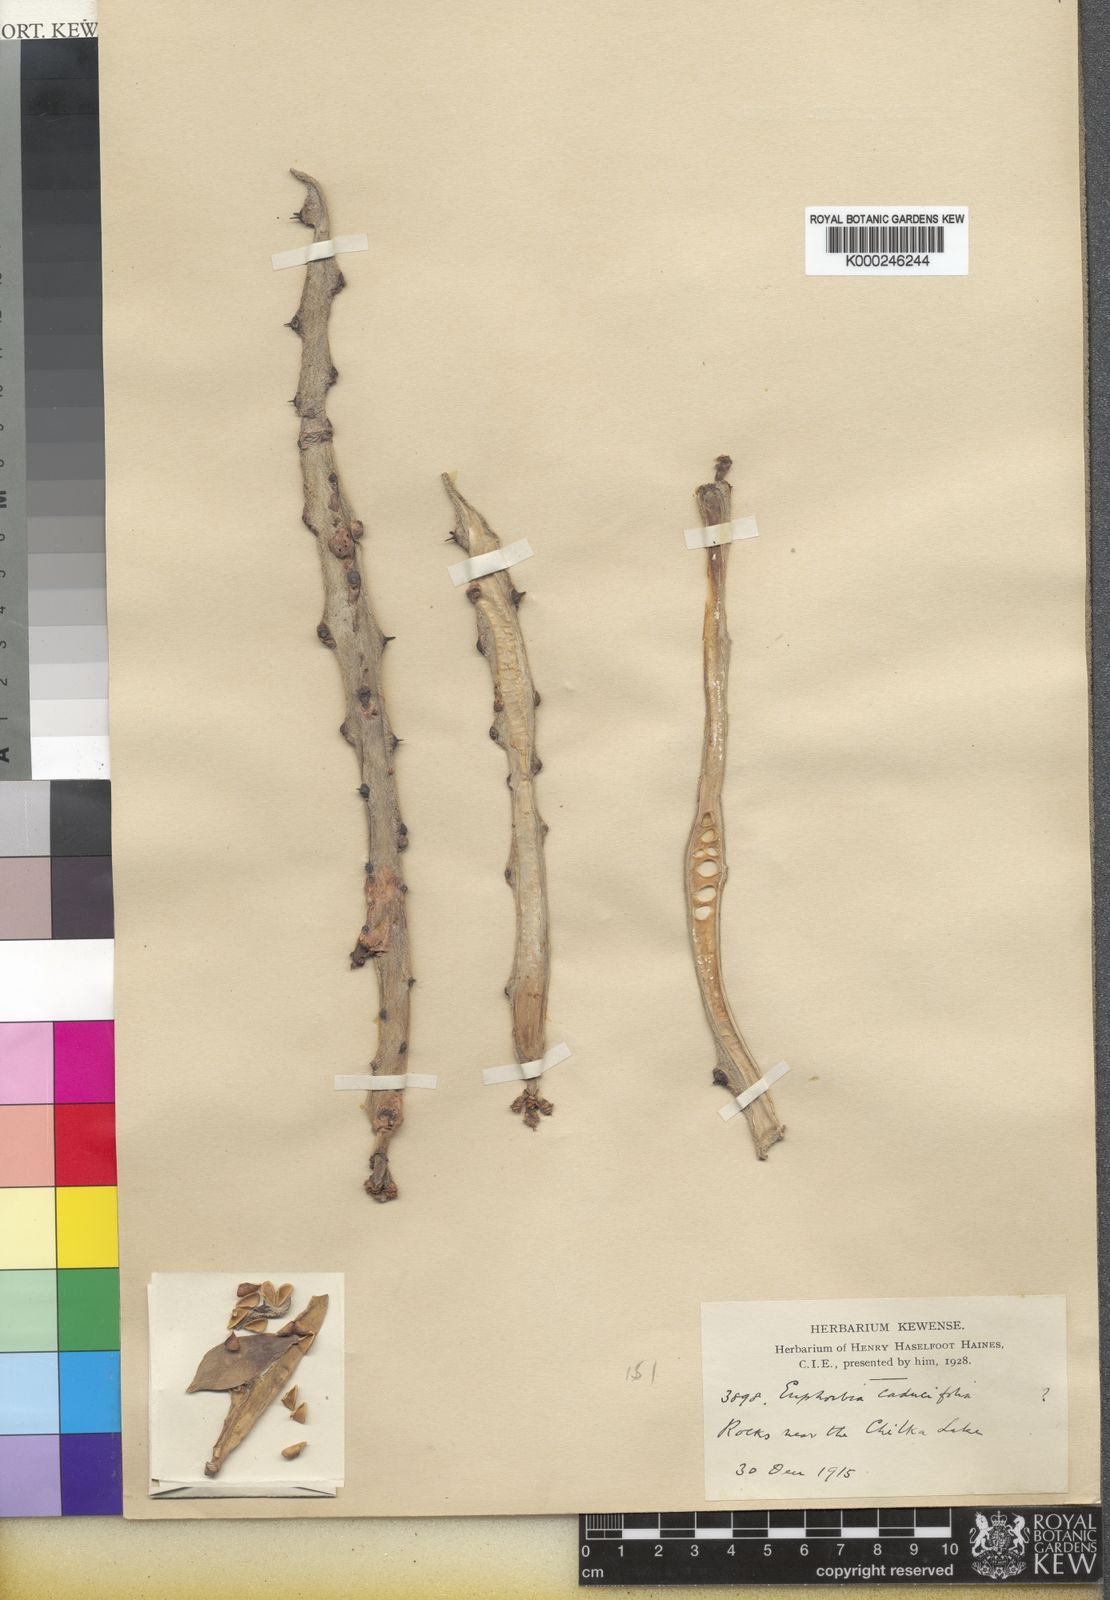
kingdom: Plantae
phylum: Tracheophyta
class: Magnoliopsida
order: Malpighiales
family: Euphorbiaceae
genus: Euphorbia
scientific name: Euphorbia caducifolia
